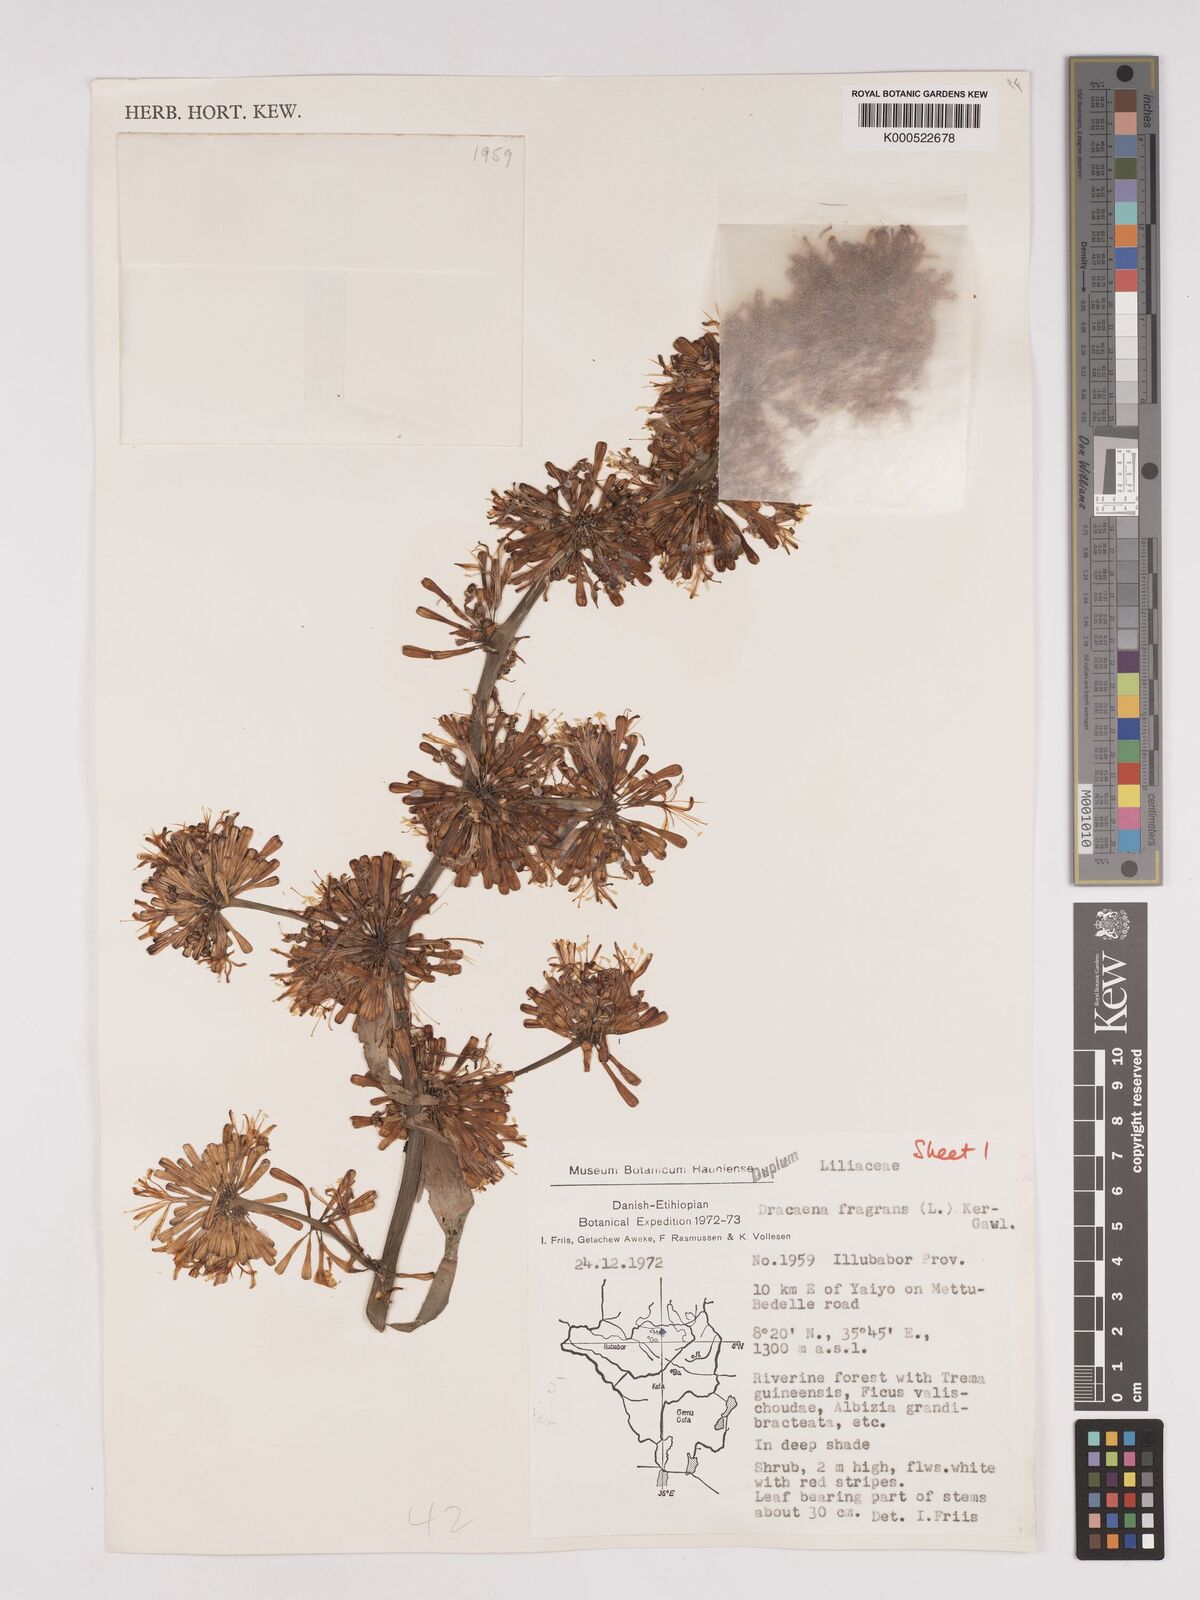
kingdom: Plantae
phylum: Tracheophyta
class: Liliopsida
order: Asparagales
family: Asparagaceae
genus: Dracaena
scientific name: Dracaena fragrans
